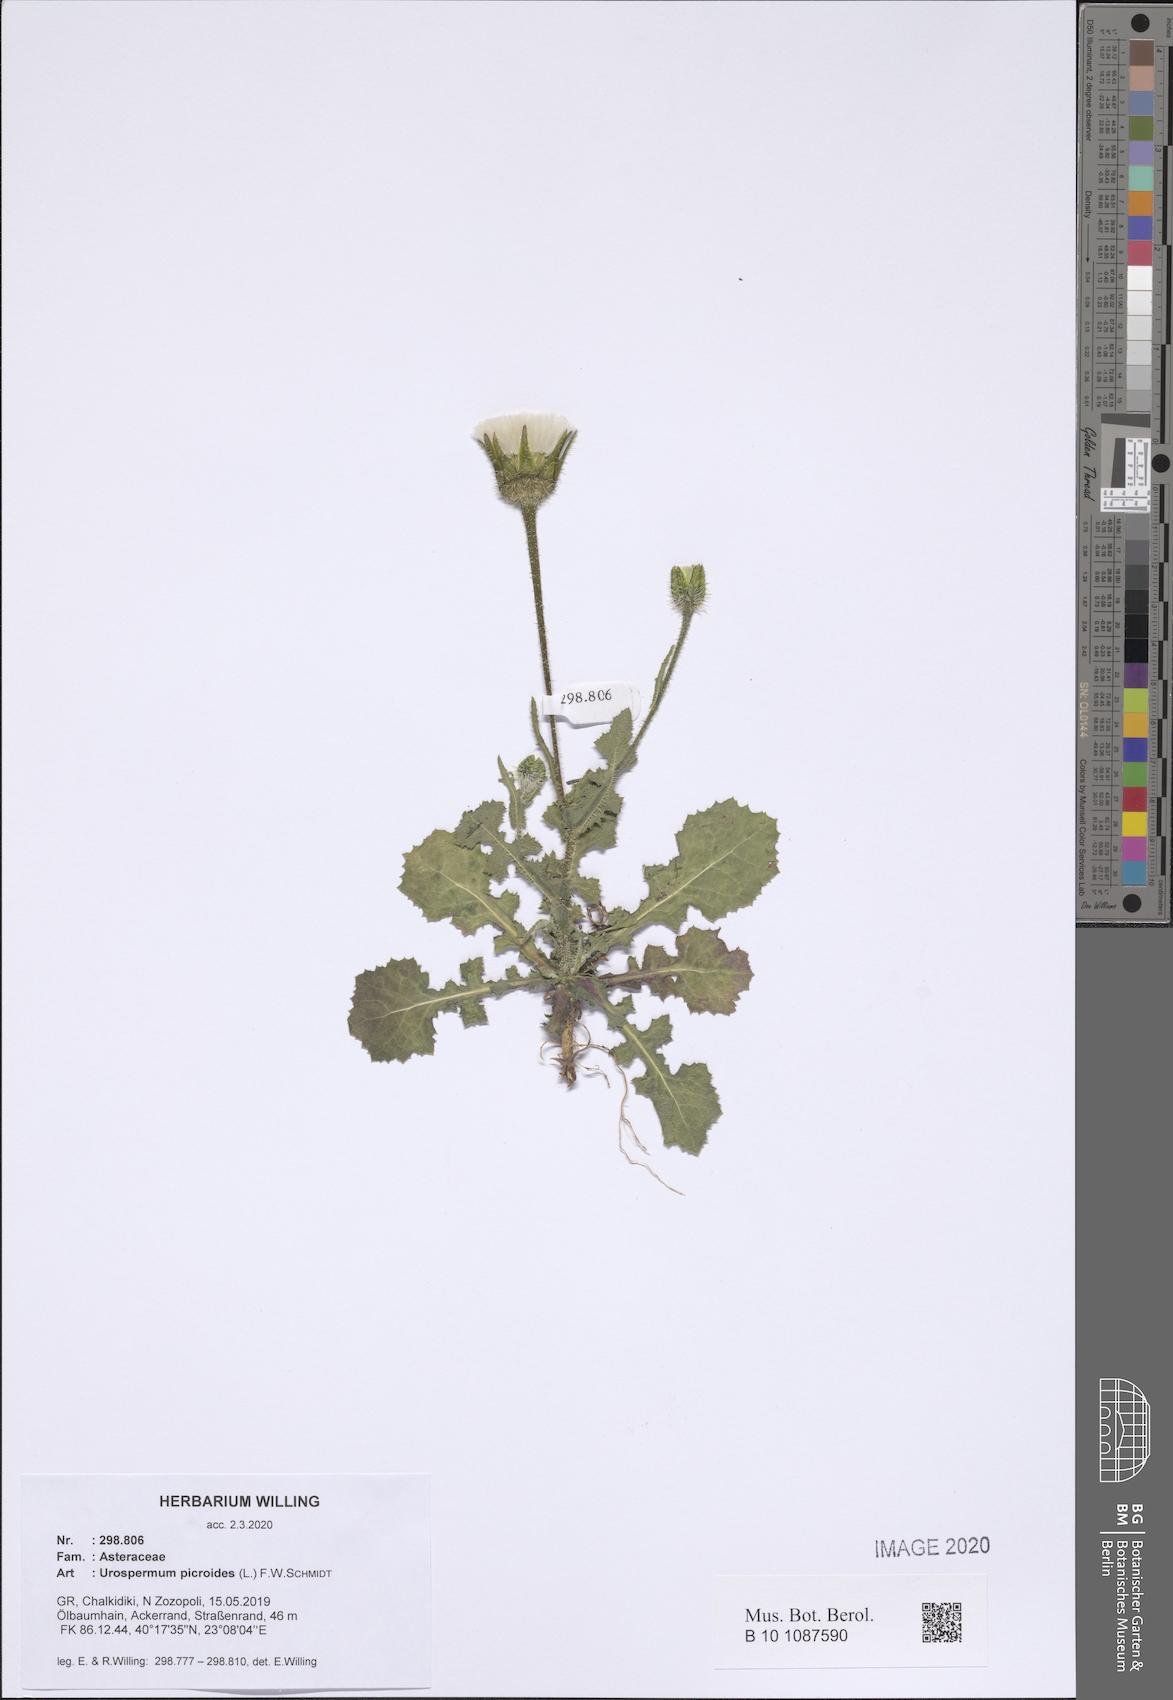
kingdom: Plantae
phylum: Tracheophyta
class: Magnoliopsida
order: Asterales
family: Asteraceae
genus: Urospermum
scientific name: Urospermum picroides
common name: False hawkbit
